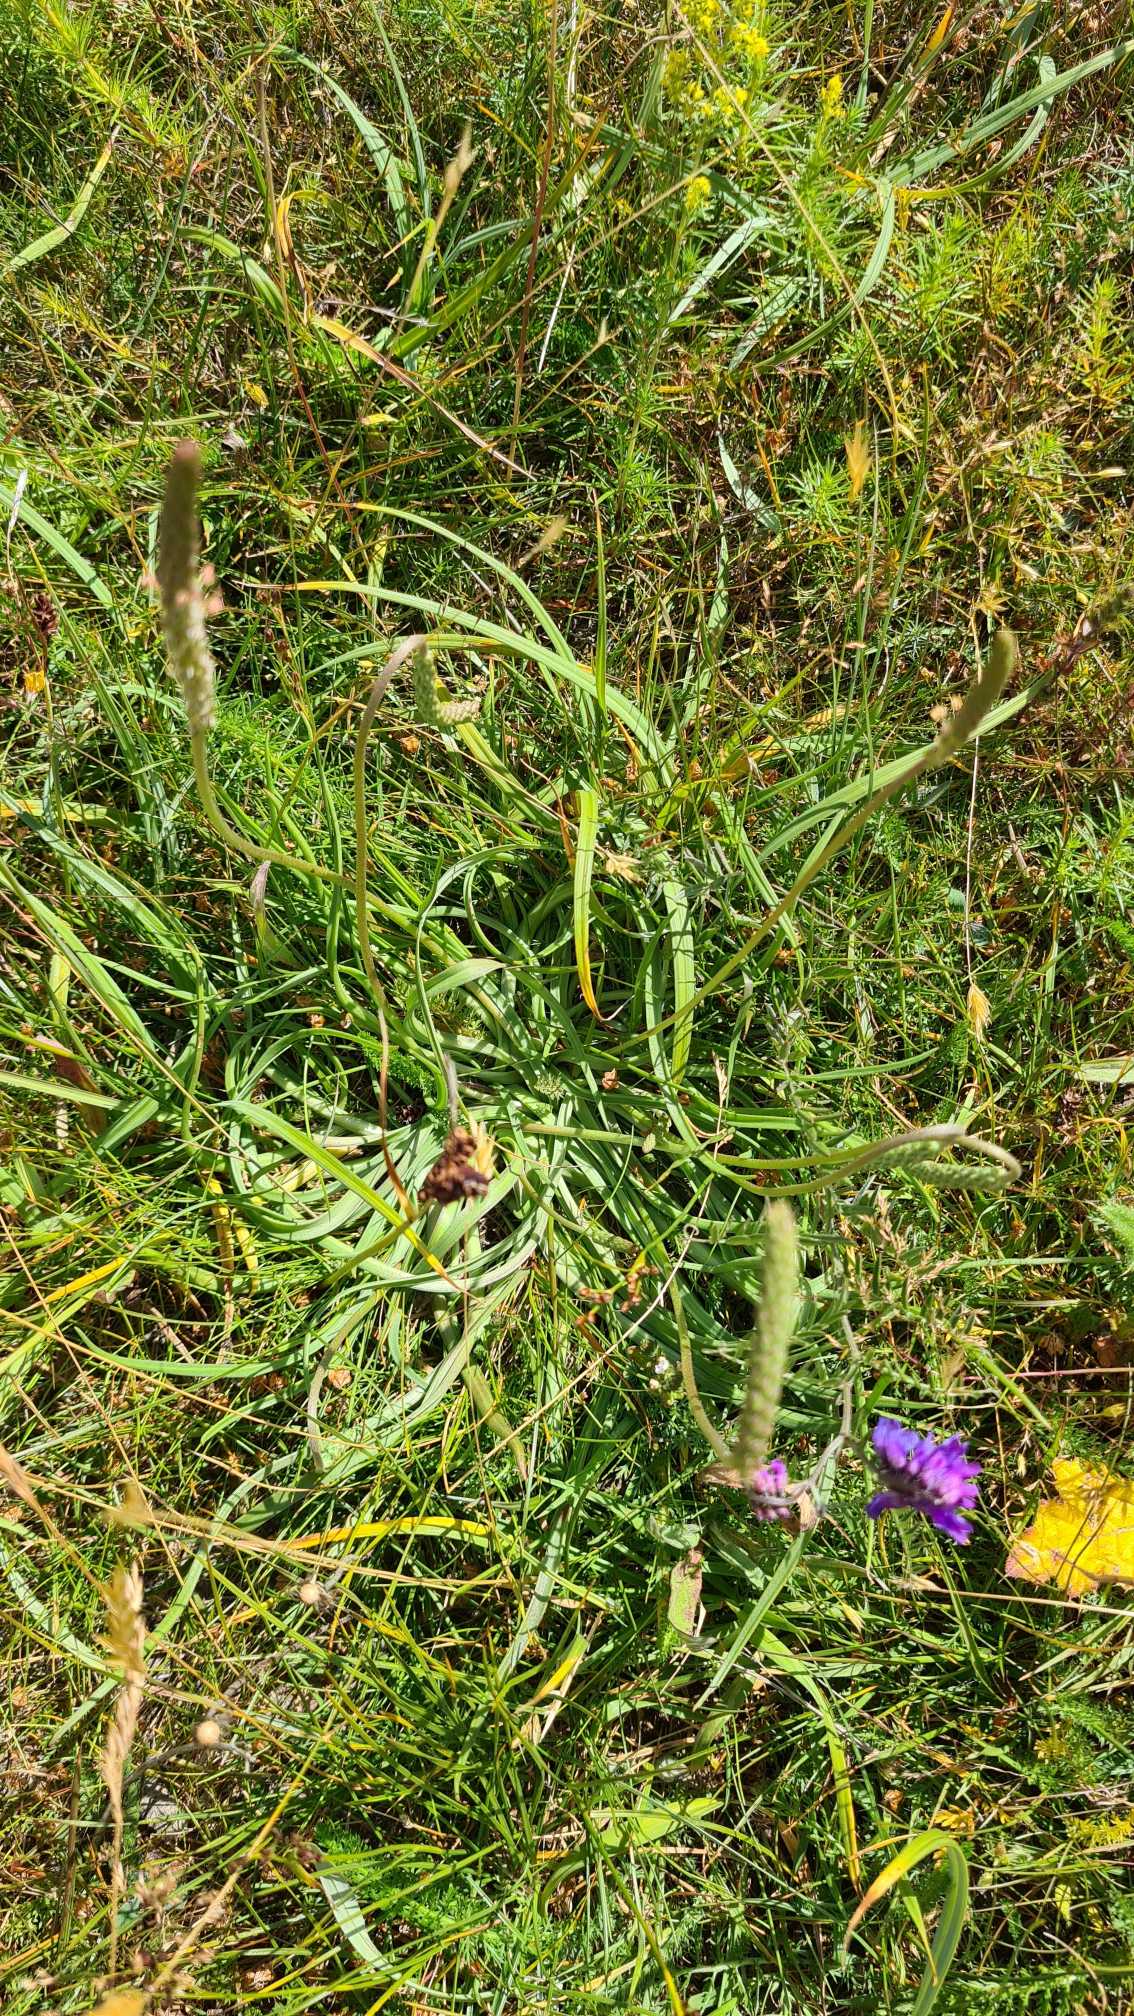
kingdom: Plantae
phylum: Tracheophyta
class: Magnoliopsida
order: Lamiales
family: Plantaginaceae
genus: Plantago
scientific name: Plantago maritima
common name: Strand-vejbred
